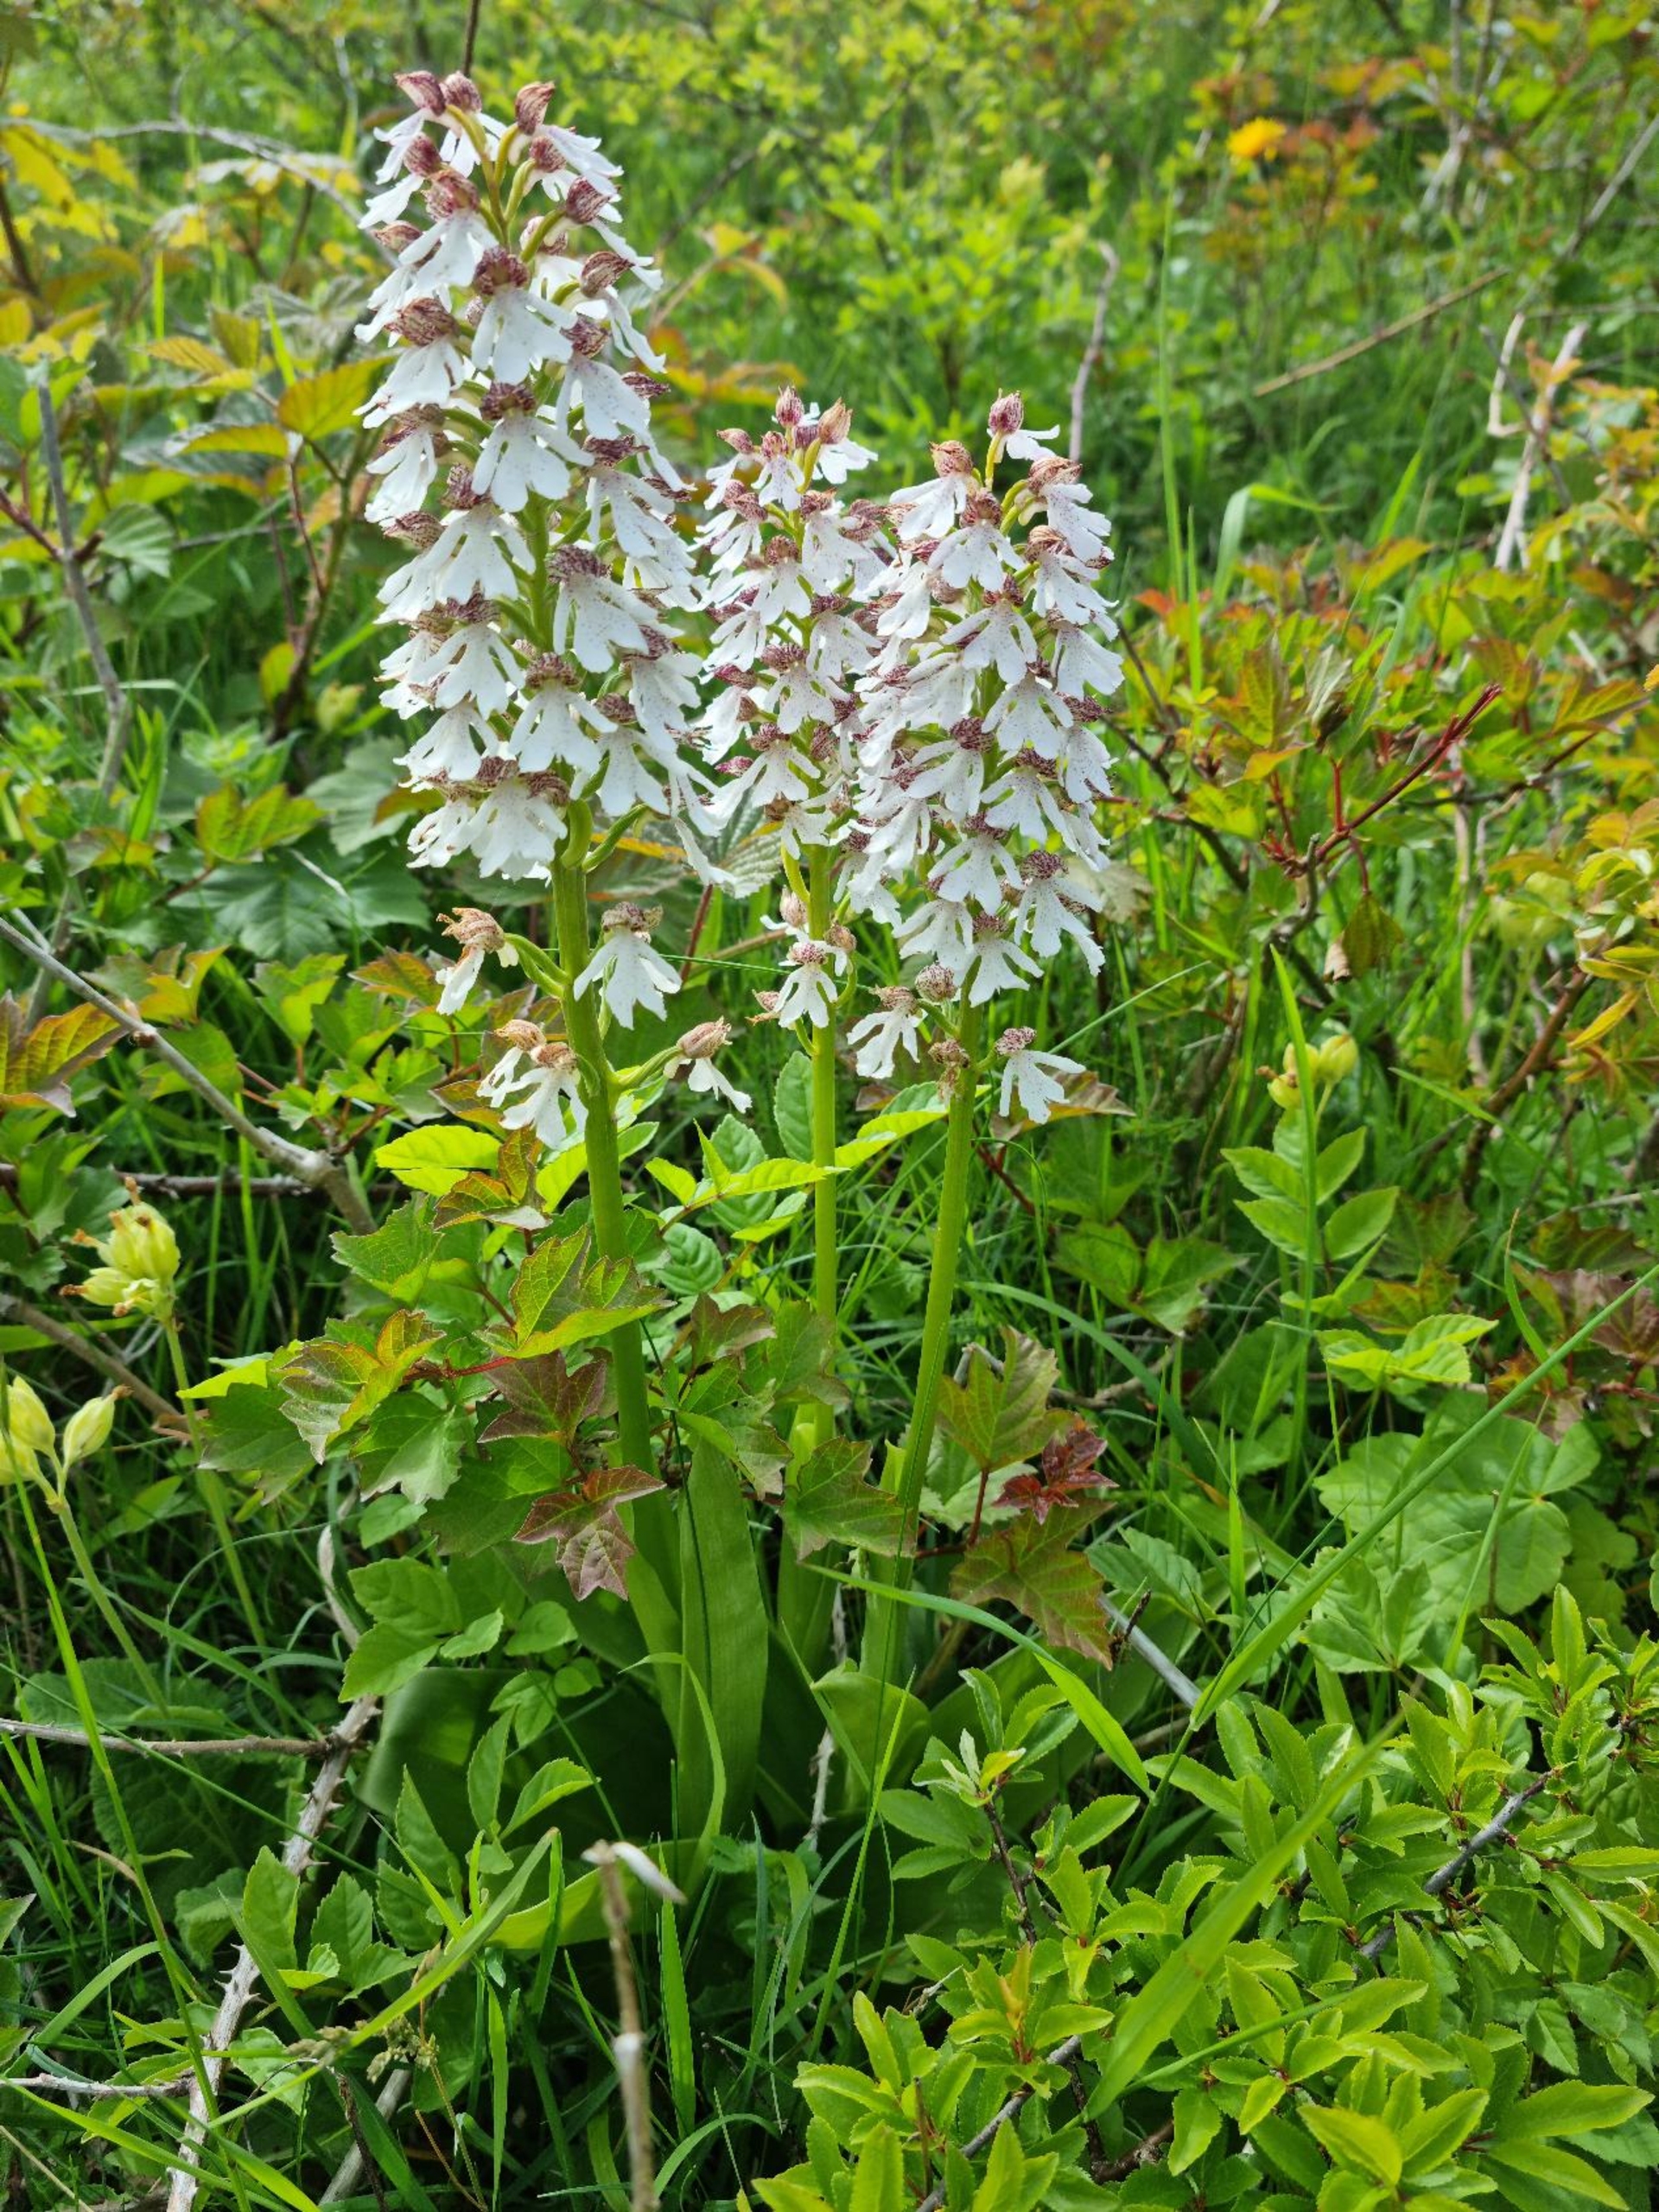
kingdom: Plantae
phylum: Tracheophyta
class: Liliopsida
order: Asparagales
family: Orchidaceae
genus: Orchis
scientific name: Orchis purpurea
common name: Stor gøgeurt
